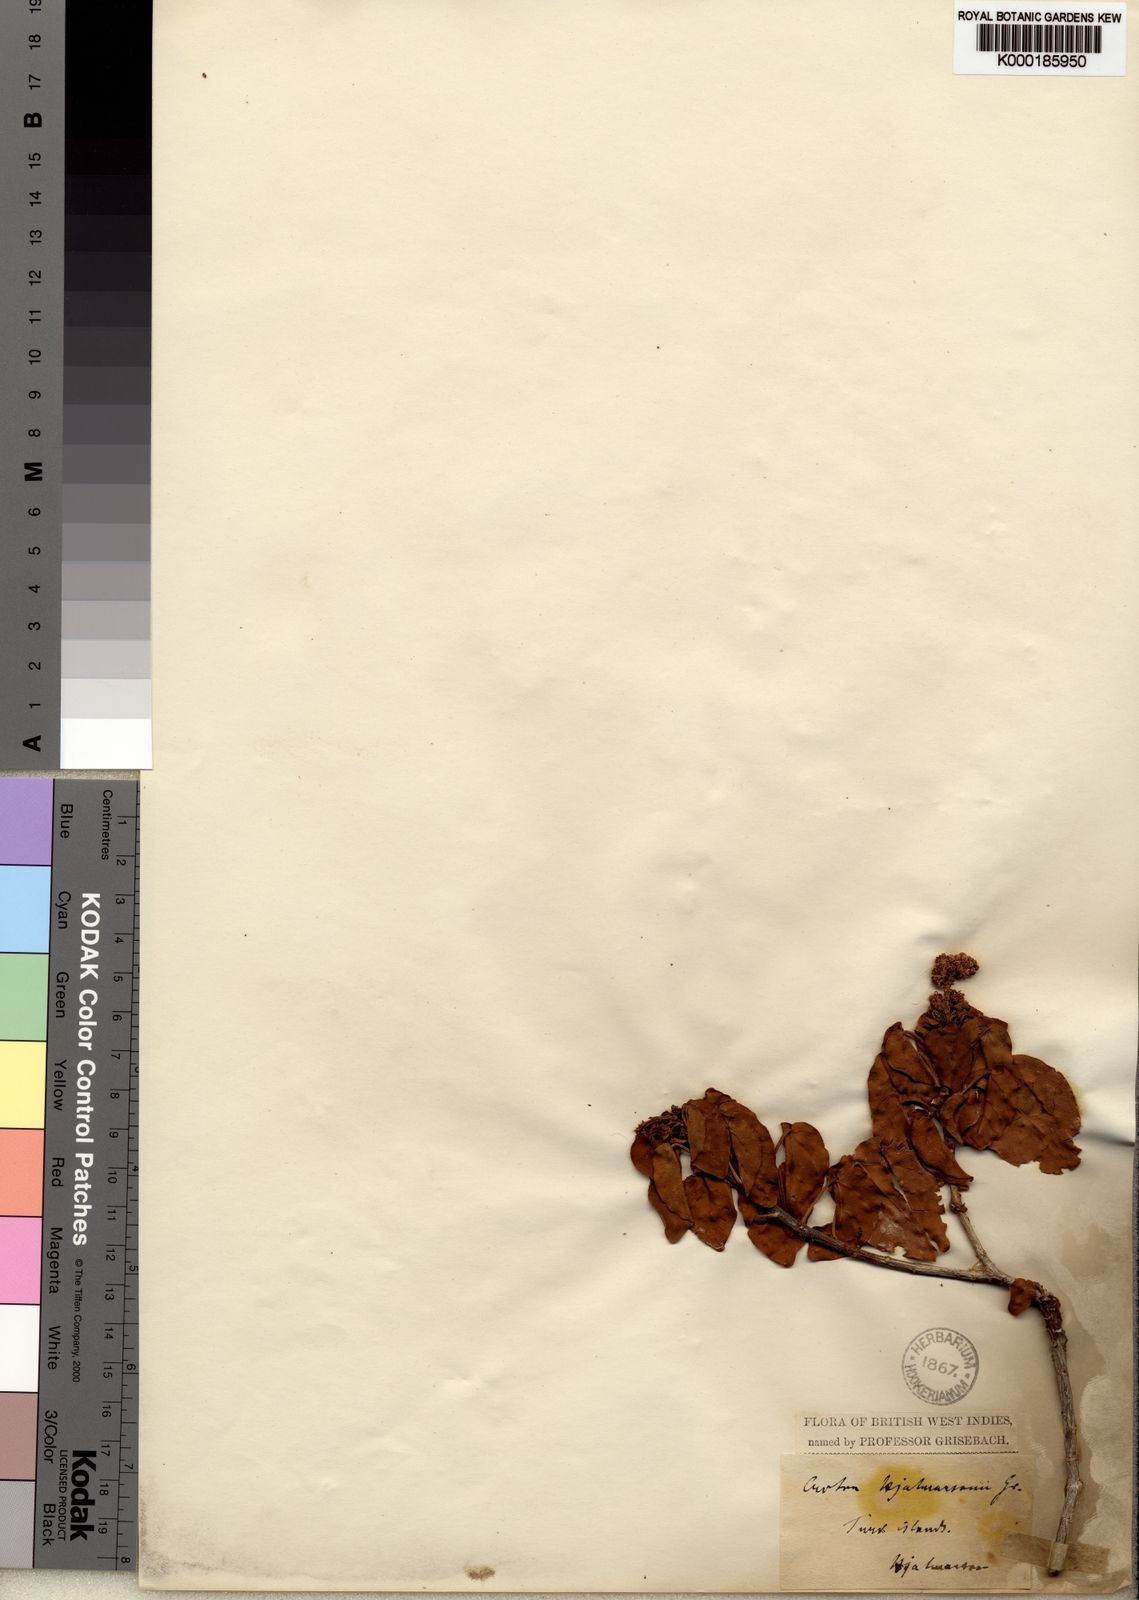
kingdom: Plantae
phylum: Tracheophyta
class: Magnoliopsida
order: Malpighiales
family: Euphorbiaceae
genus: Croton
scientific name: Croton glabellus
